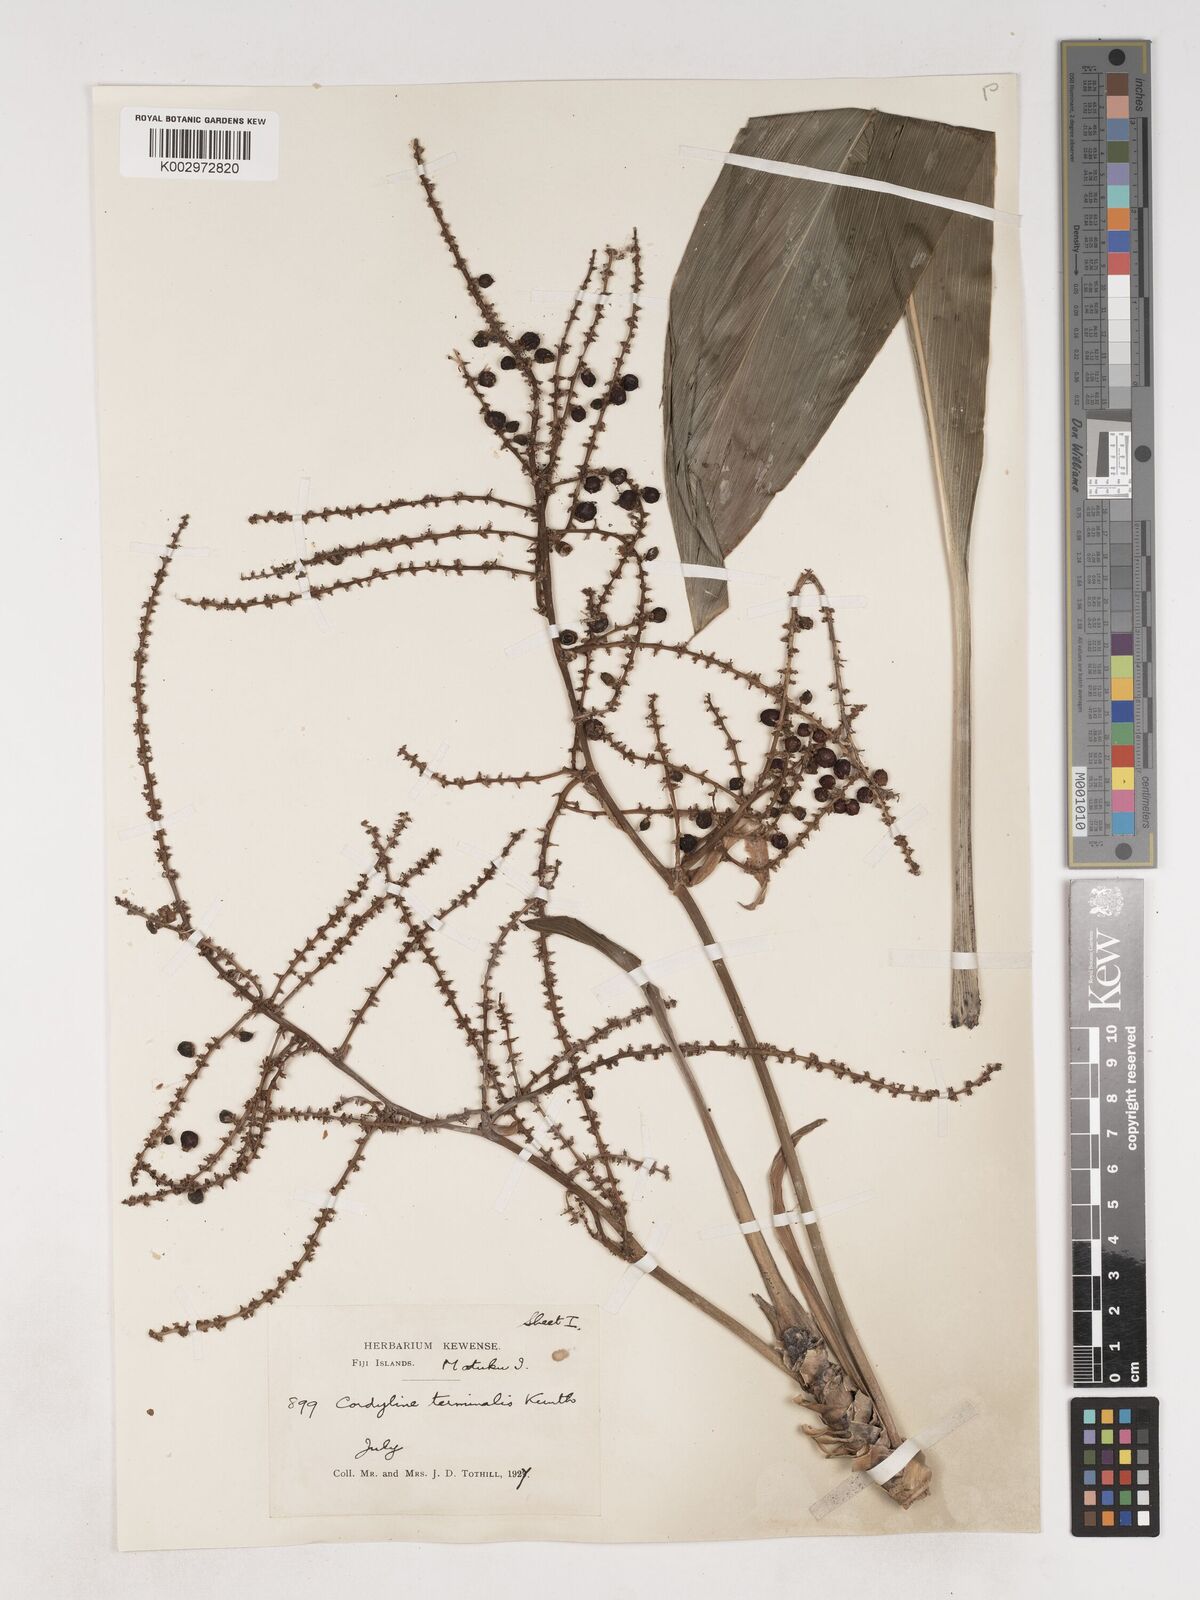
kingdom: Plantae
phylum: Tracheophyta
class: Liliopsida
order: Asparagales
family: Asparagaceae
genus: Cordyline
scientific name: Cordyline fruticosa
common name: Good-luck-plant
